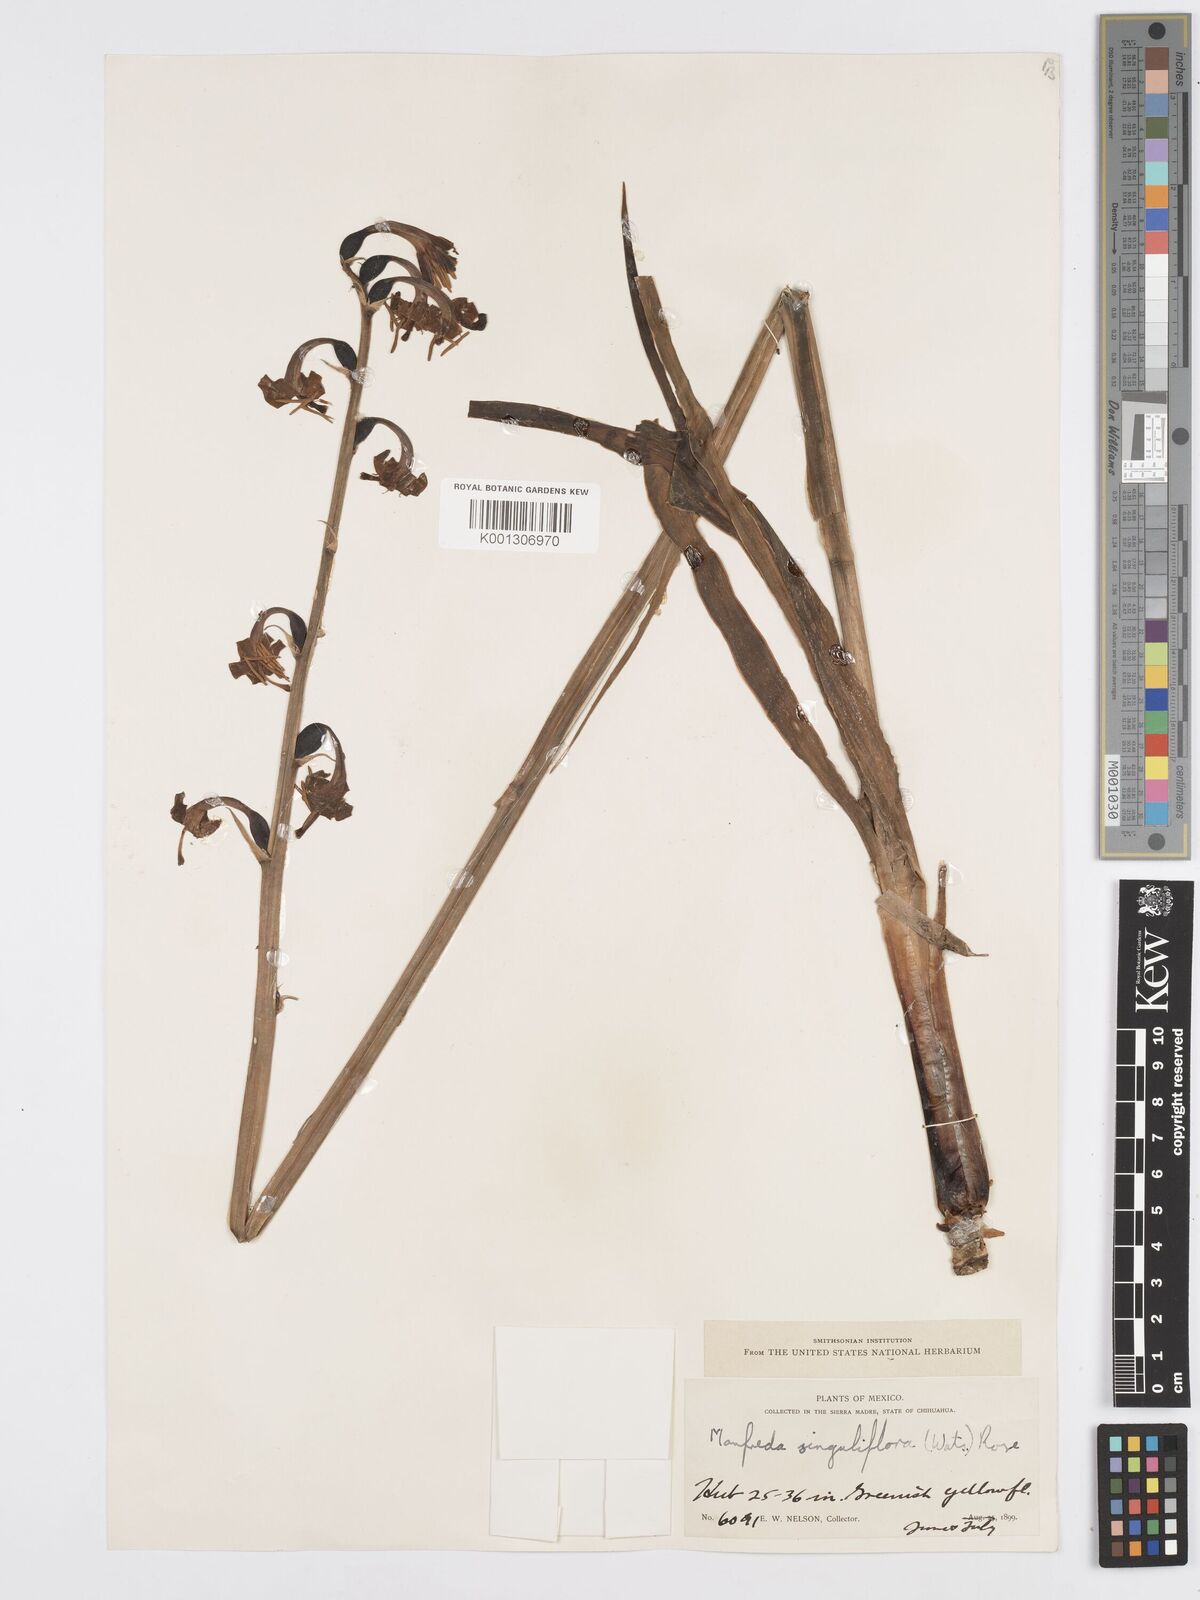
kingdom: Plantae
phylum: Tracheophyta
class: Liliopsida
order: Asparagales
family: Asparagaceae
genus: Agave
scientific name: Agave singuliflora
